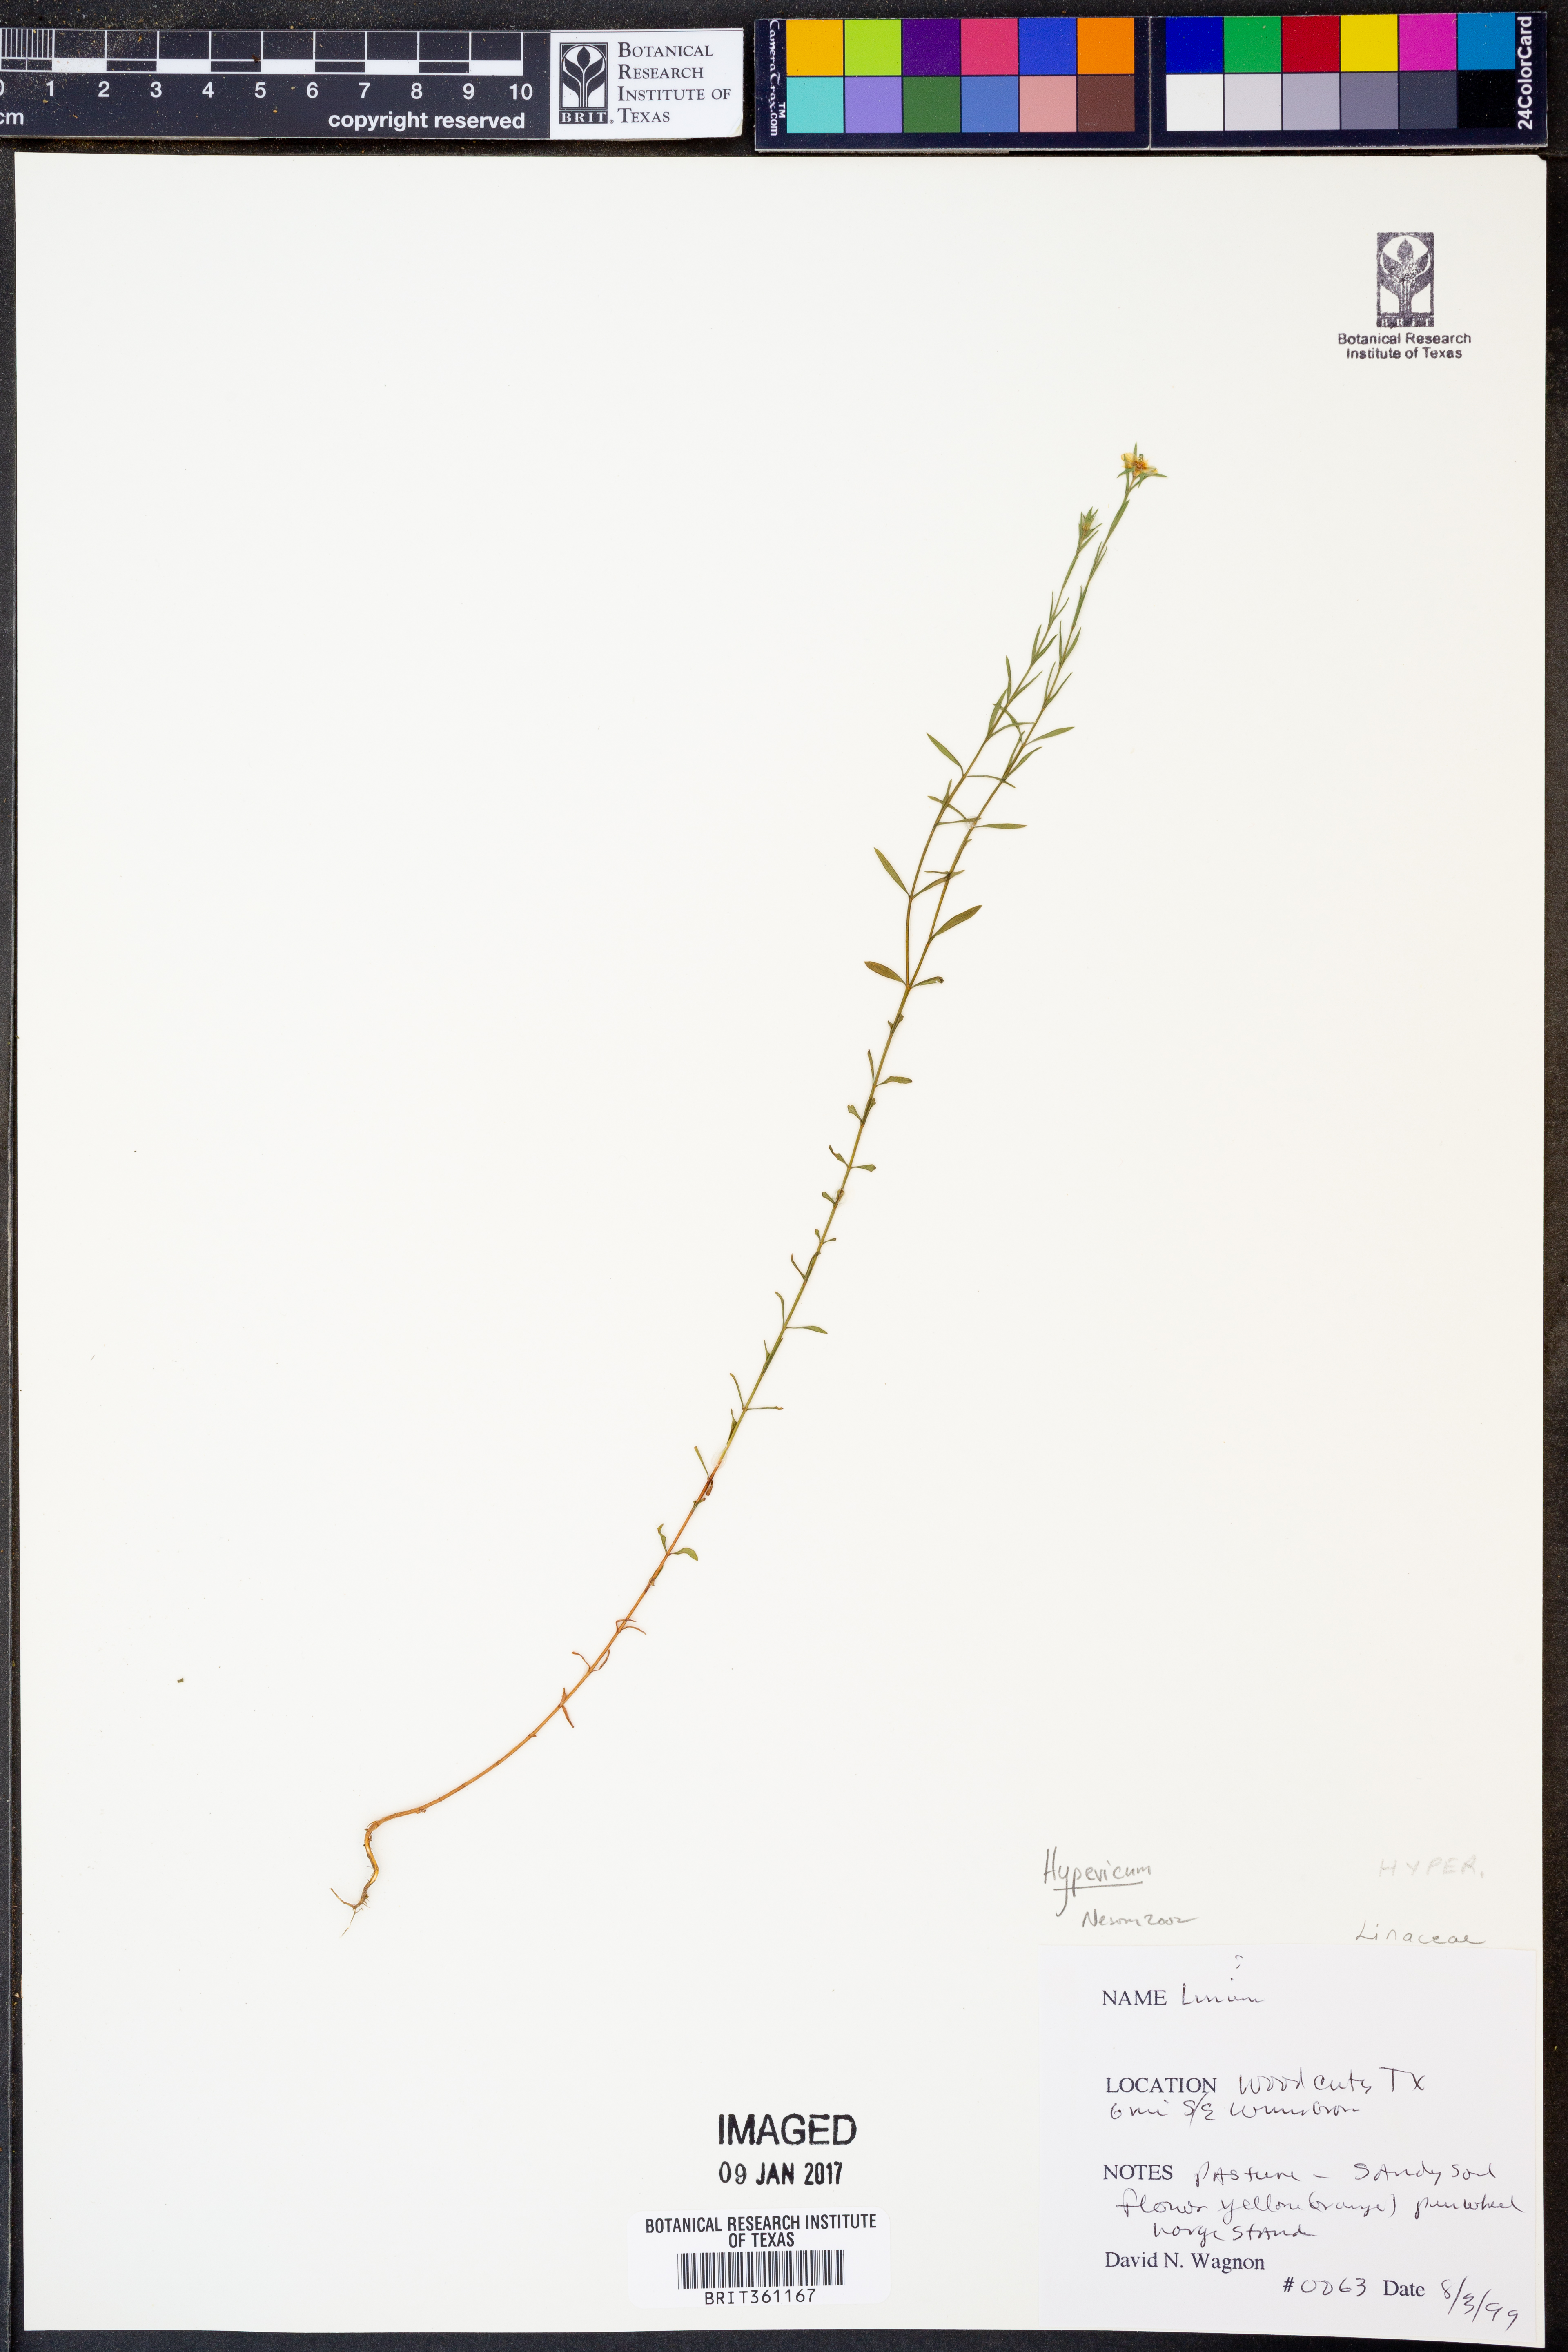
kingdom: Plantae
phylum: Tracheophyta
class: Magnoliopsida
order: Malpighiales
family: Linaceae
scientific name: Linaceae
